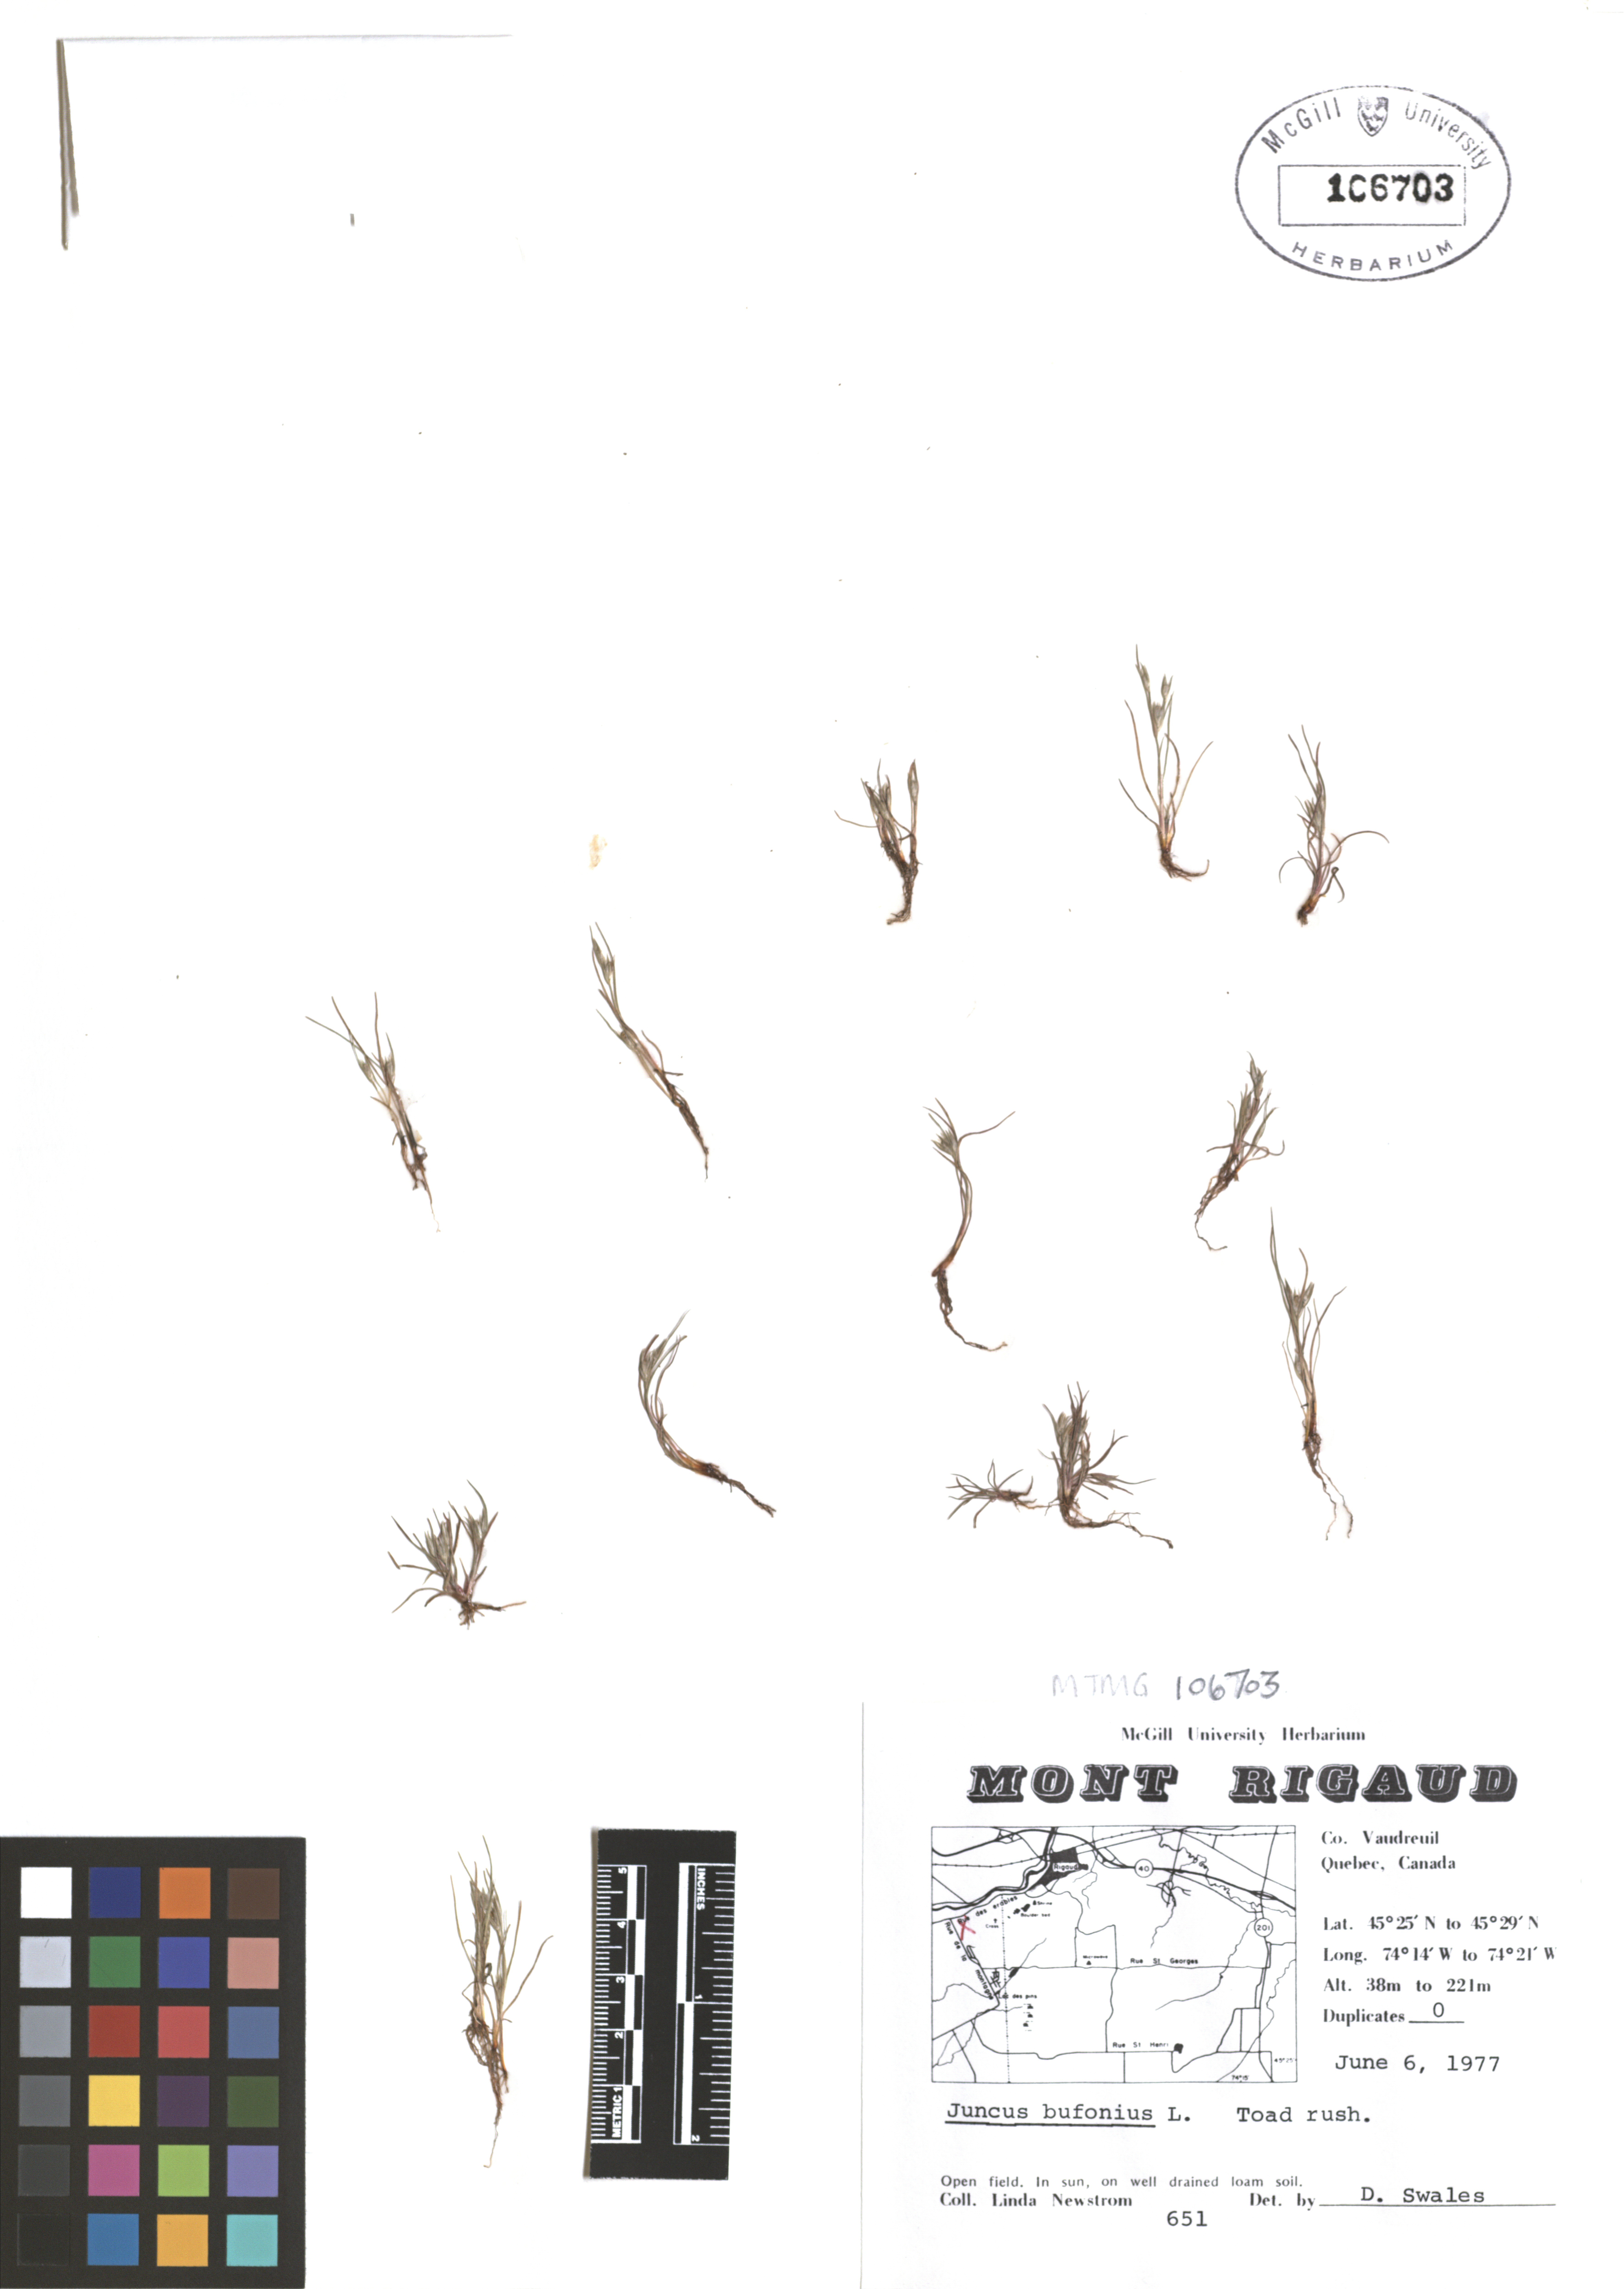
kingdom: Plantae
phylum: Tracheophyta
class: Liliopsida
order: Poales
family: Juncaceae
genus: Juncus
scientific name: Juncus bufonius
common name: Toad rush
